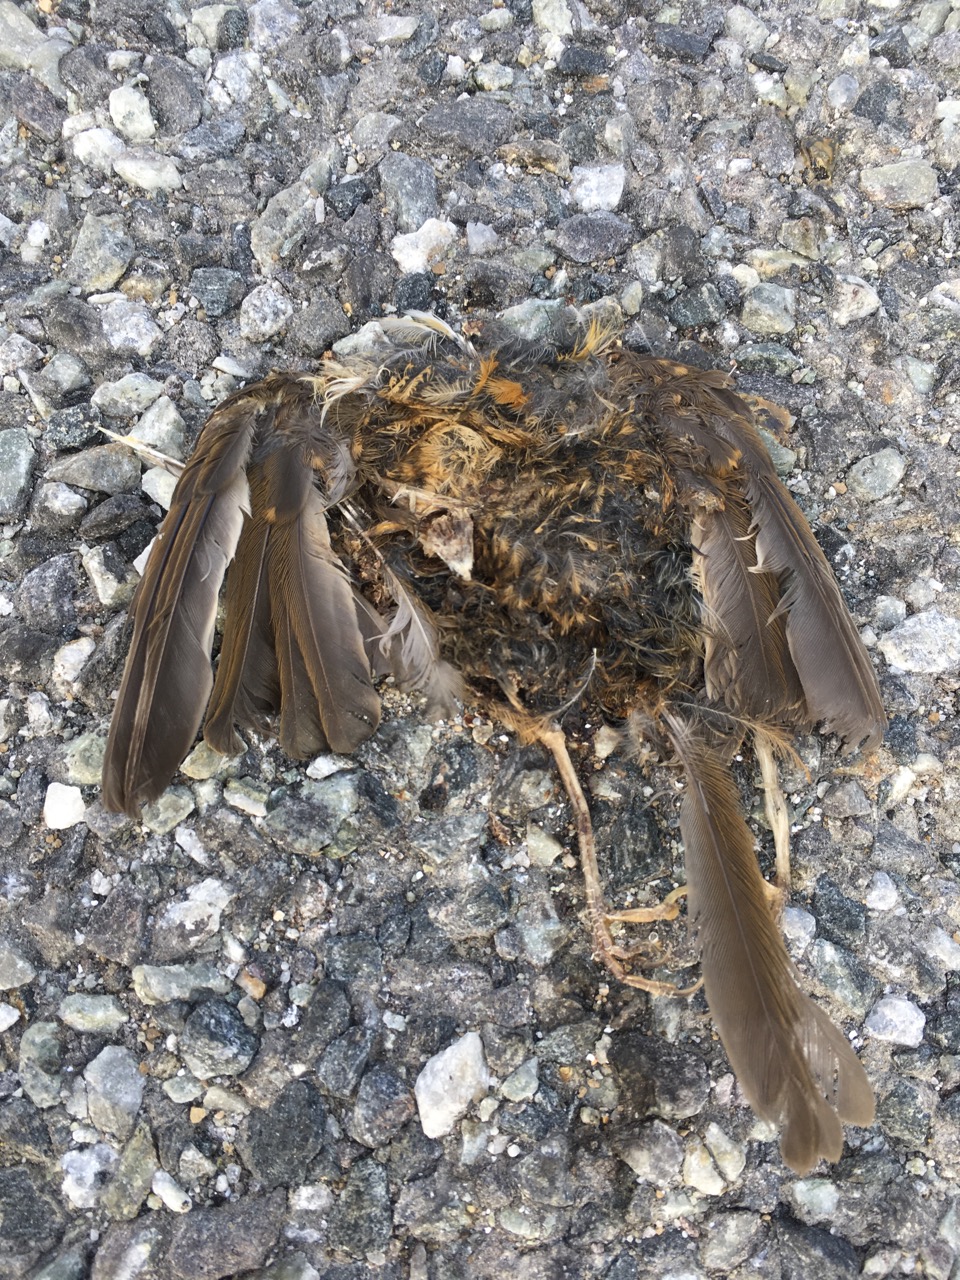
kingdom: Animalia
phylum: Chordata
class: Aves
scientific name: Aves
